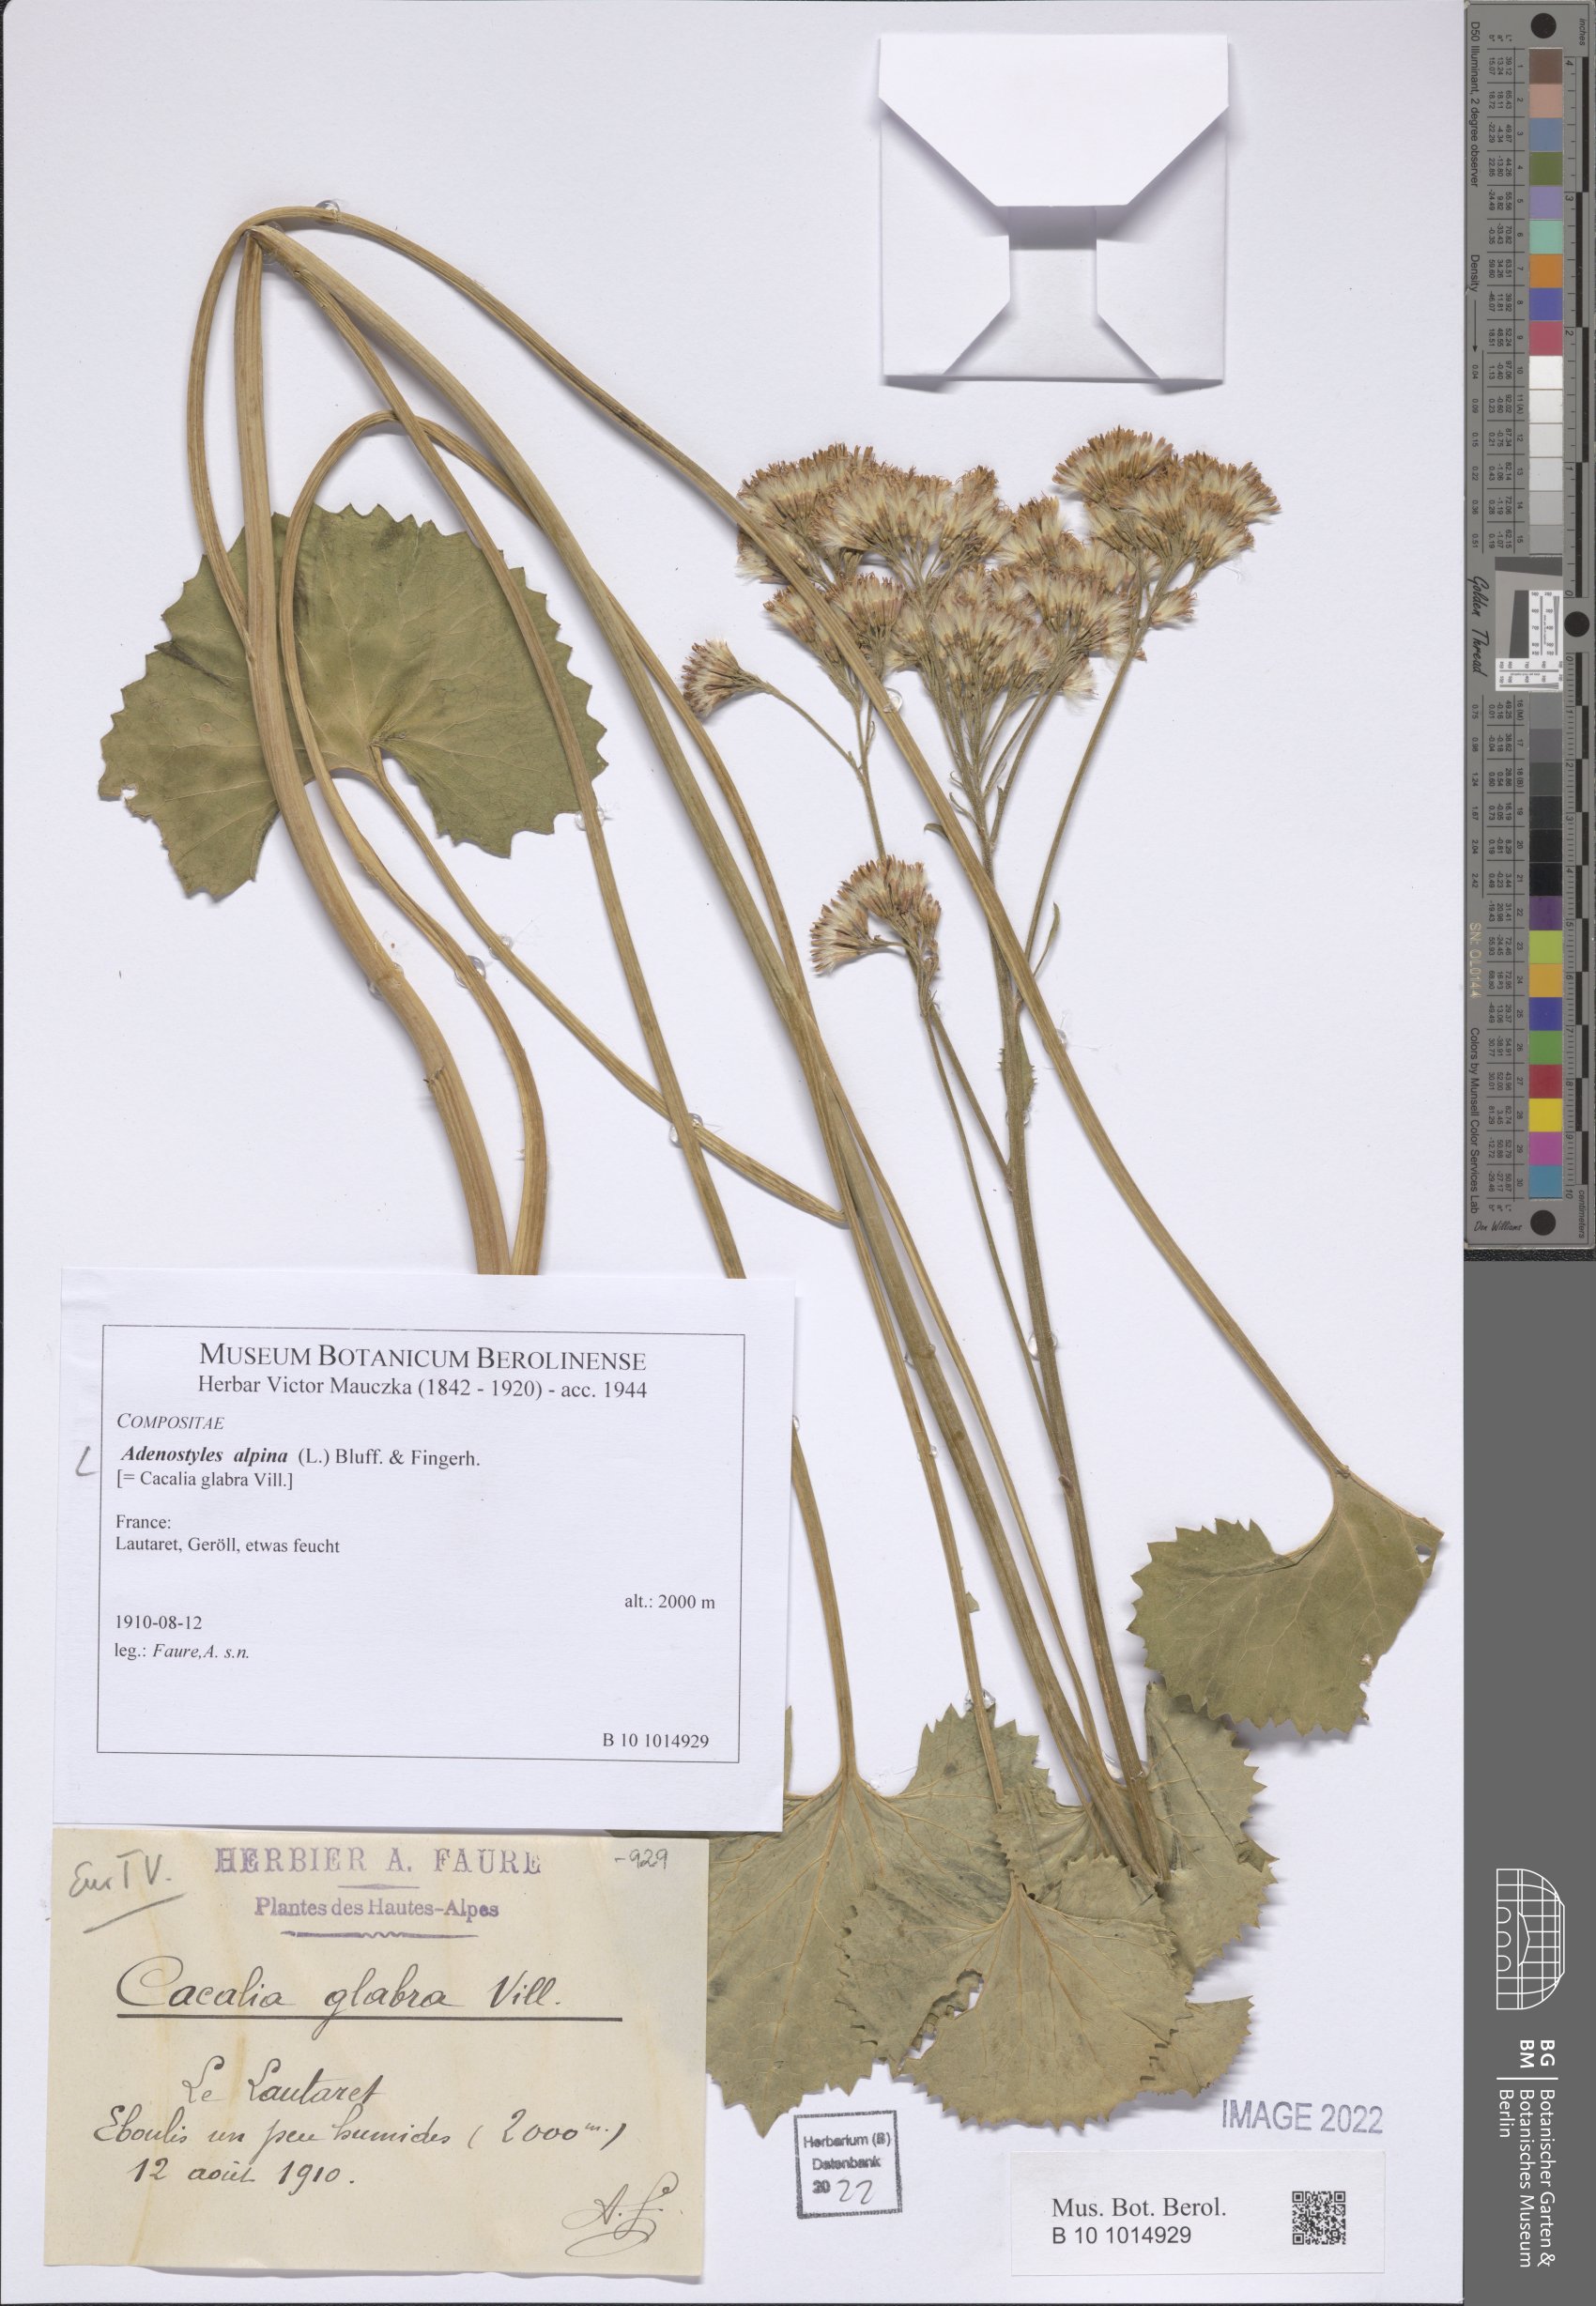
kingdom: Plantae
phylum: Tracheophyta
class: Magnoliopsida
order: Asterales
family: Asteraceae
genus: Adenostyles
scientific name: Adenostyles alpina
